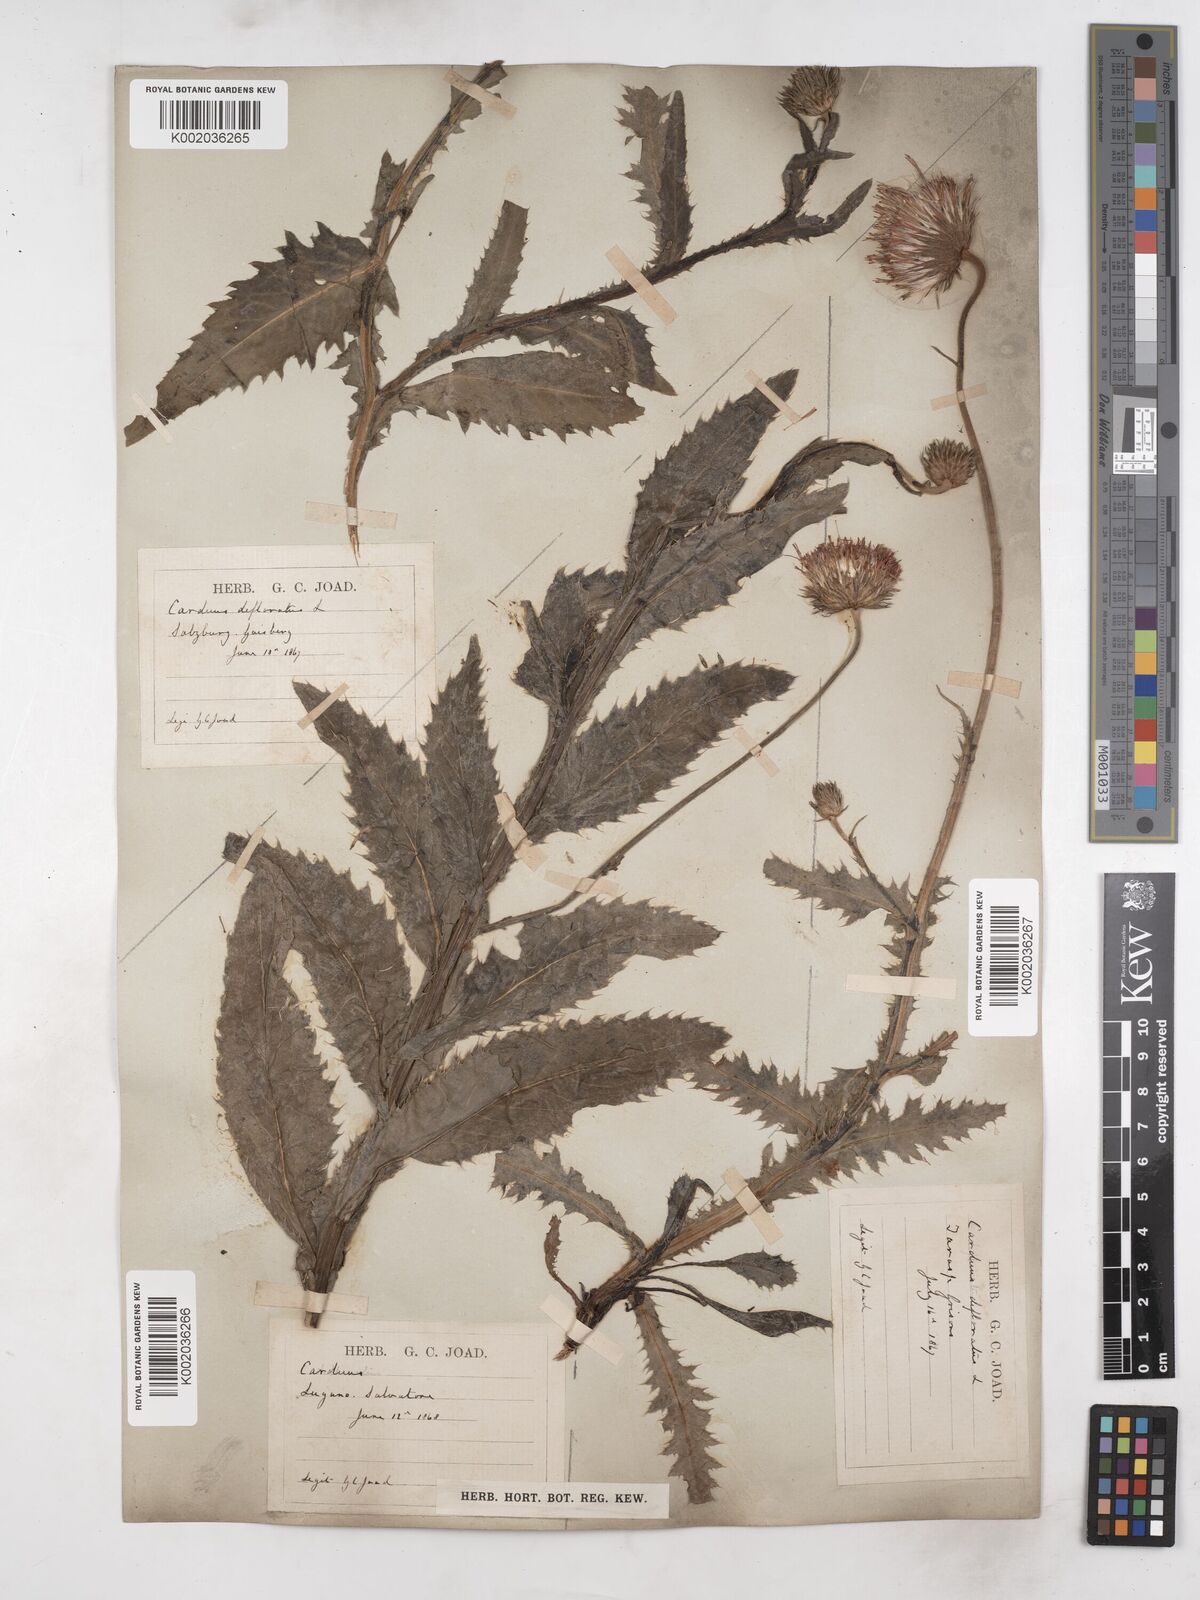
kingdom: Plantae
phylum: Tracheophyta
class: Magnoliopsida
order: Asterales
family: Asteraceae
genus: Carduus
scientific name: Carduus defloratus
